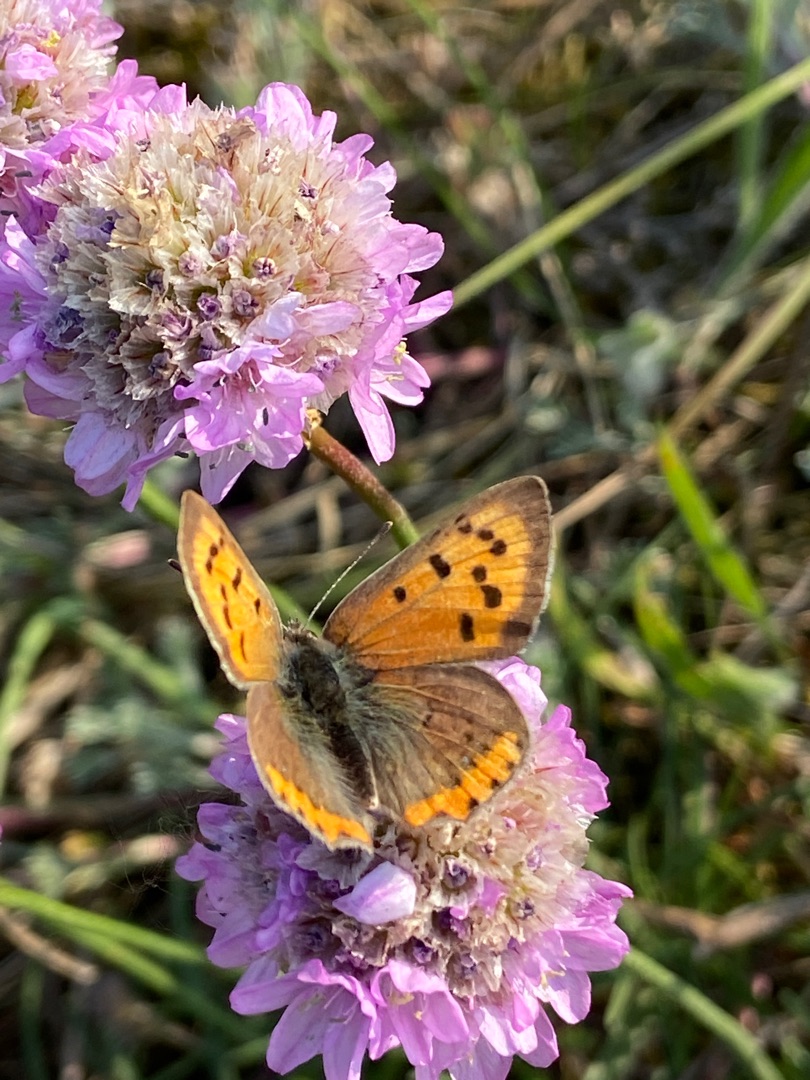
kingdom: Animalia
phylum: Arthropoda
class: Insecta
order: Lepidoptera
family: Lycaenidae
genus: Lycaena
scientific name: Lycaena phlaeas
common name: Lille ildfugl
